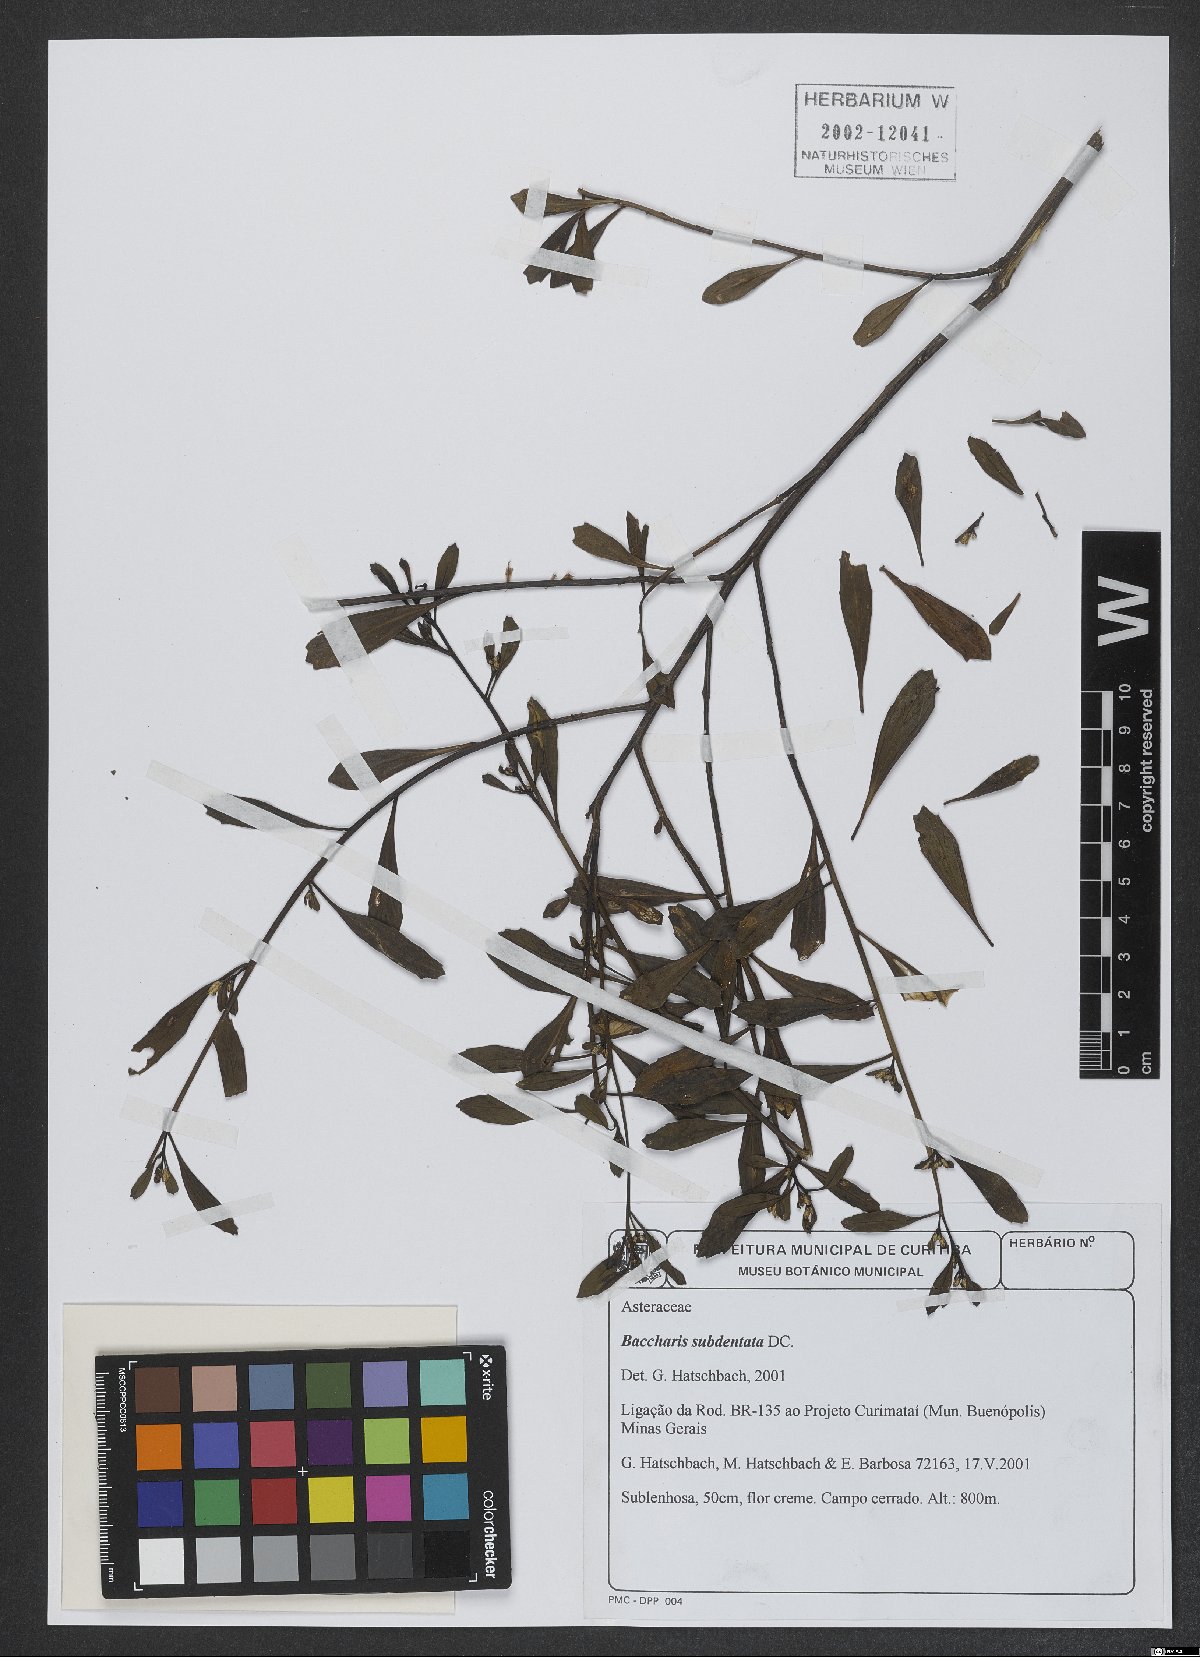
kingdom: Plantae
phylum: Tracheophyta
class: Magnoliopsida
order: Asterales
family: Asteraceae
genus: Baccharis
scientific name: Baccharis subdentata
